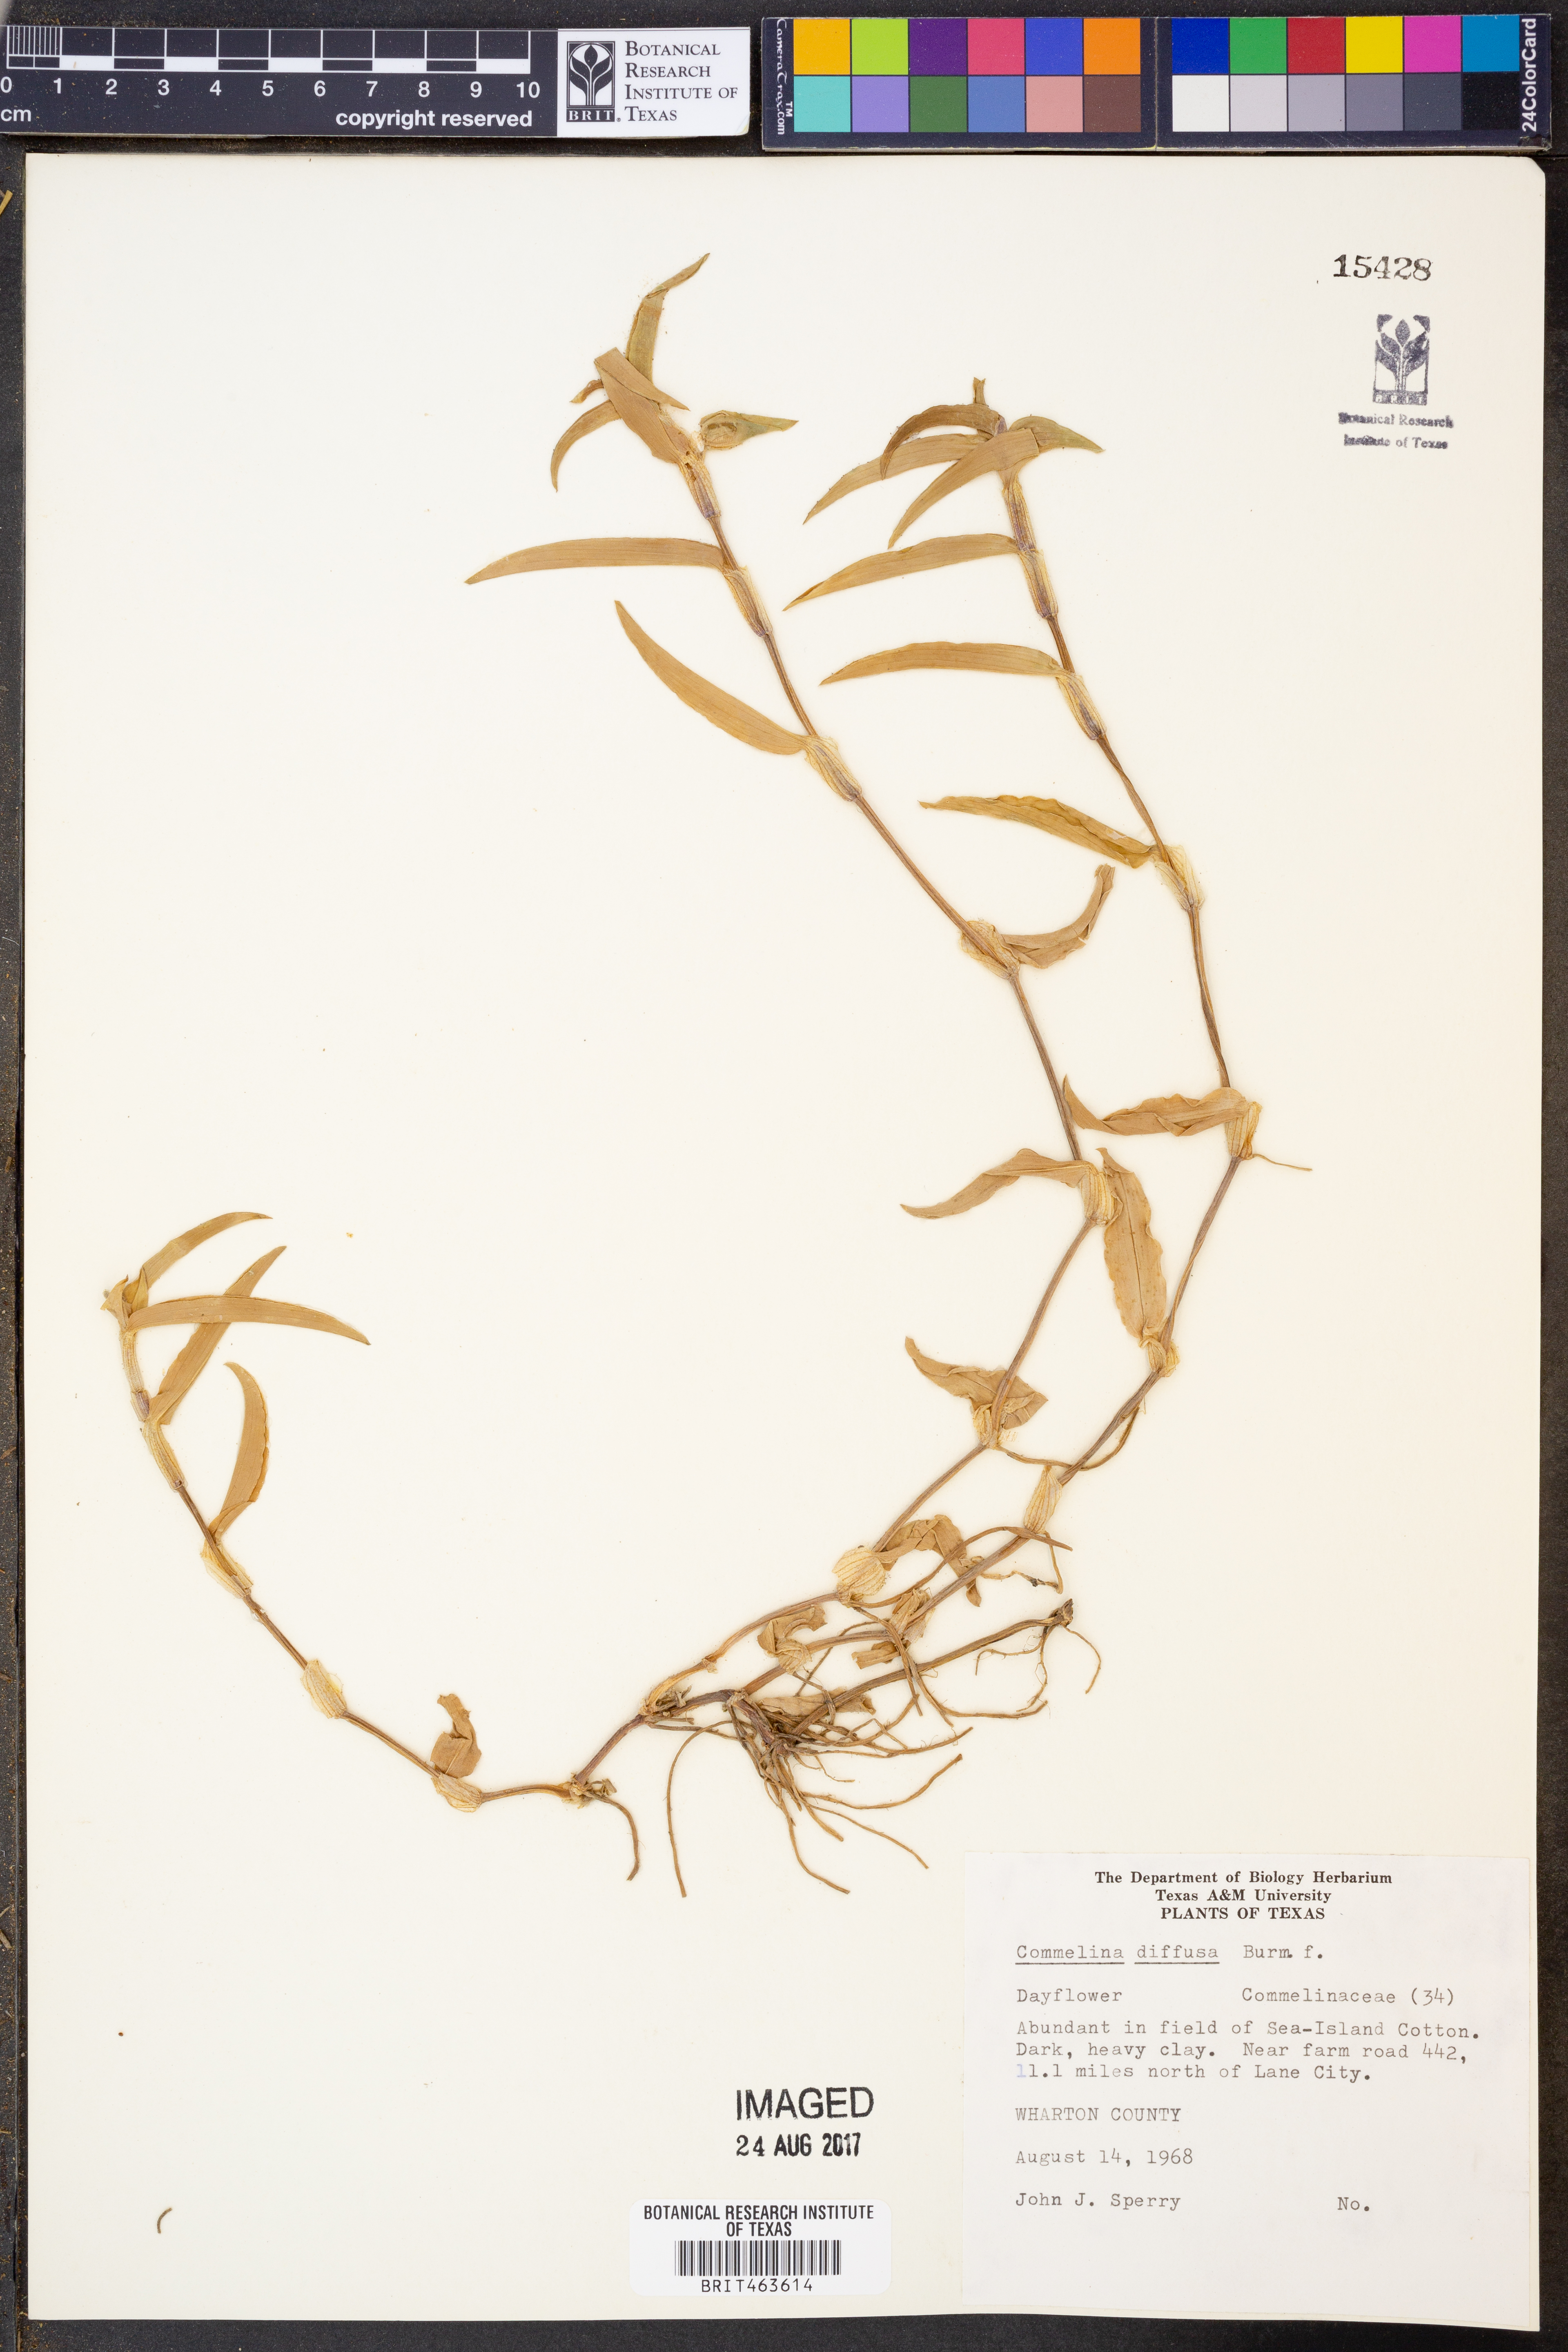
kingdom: Plantae
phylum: Tracheophyta
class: Liliopsida
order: Commelinales
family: Commelinaceae
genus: Commelina
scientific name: Commelina diffusa
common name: Climbing dayflower
